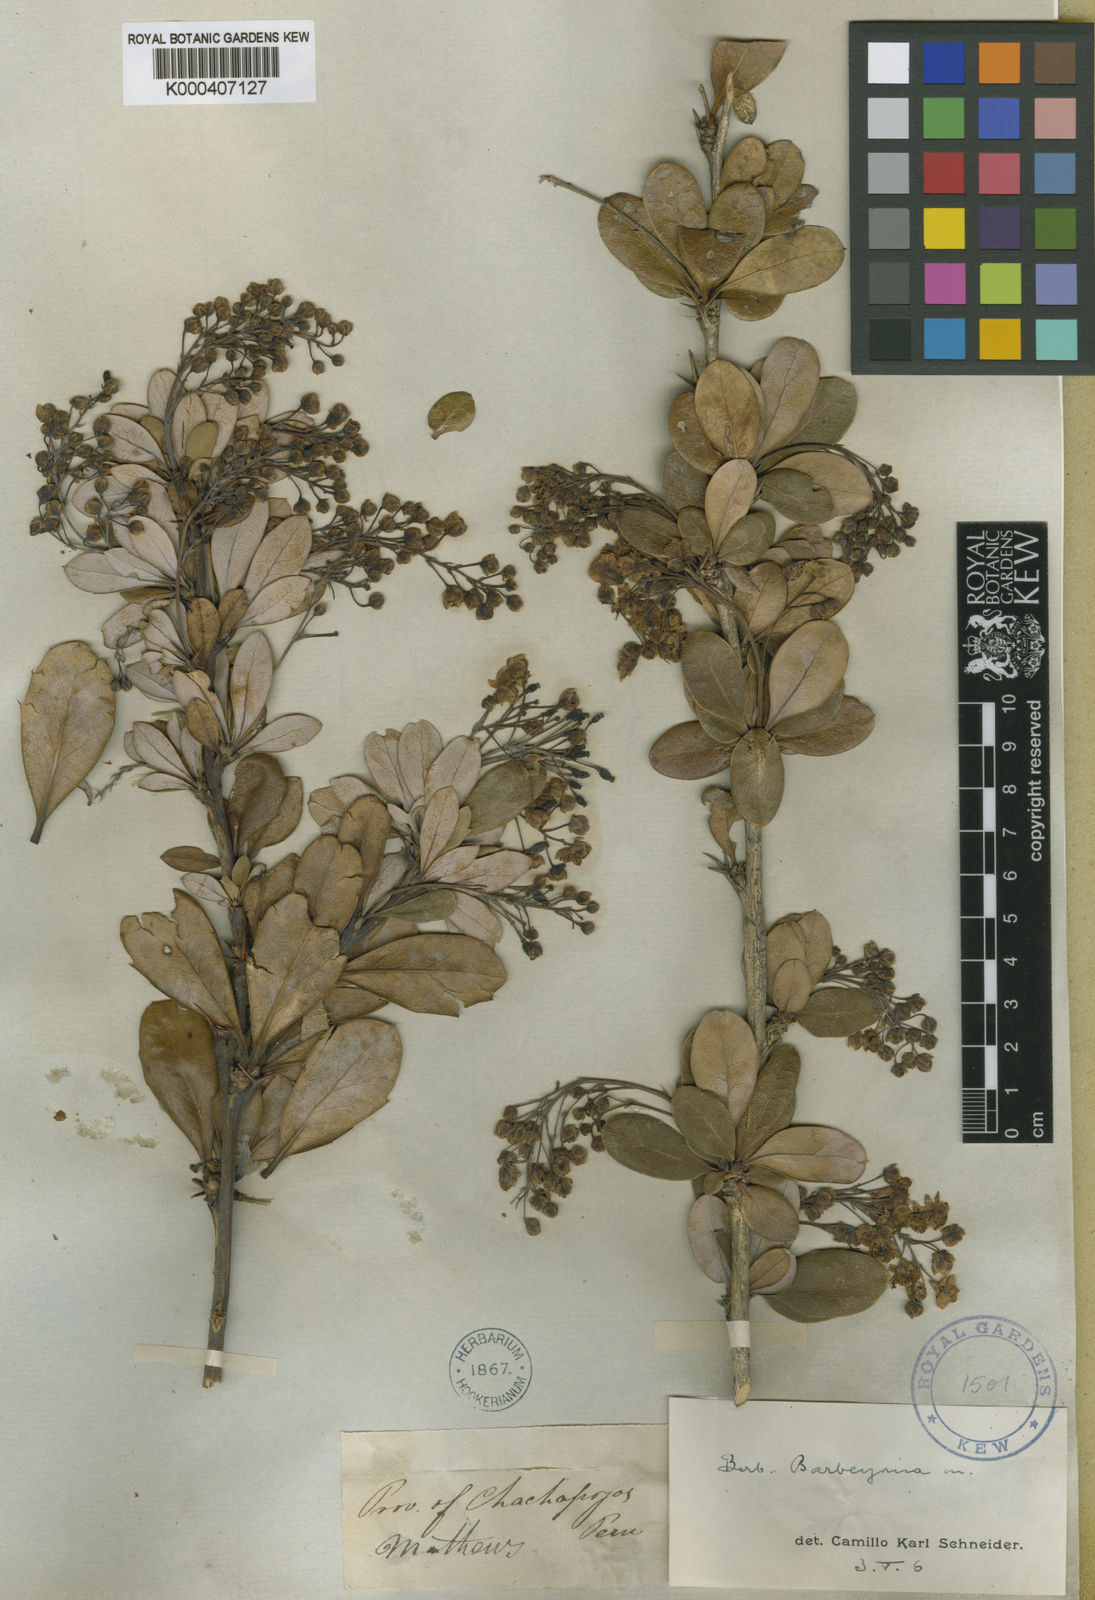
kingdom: Plantae
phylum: Tracheophyta
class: Magnoliopsida
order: Ranunculales
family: Berberidaceae
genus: Berberis
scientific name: Berberis barbeyana
